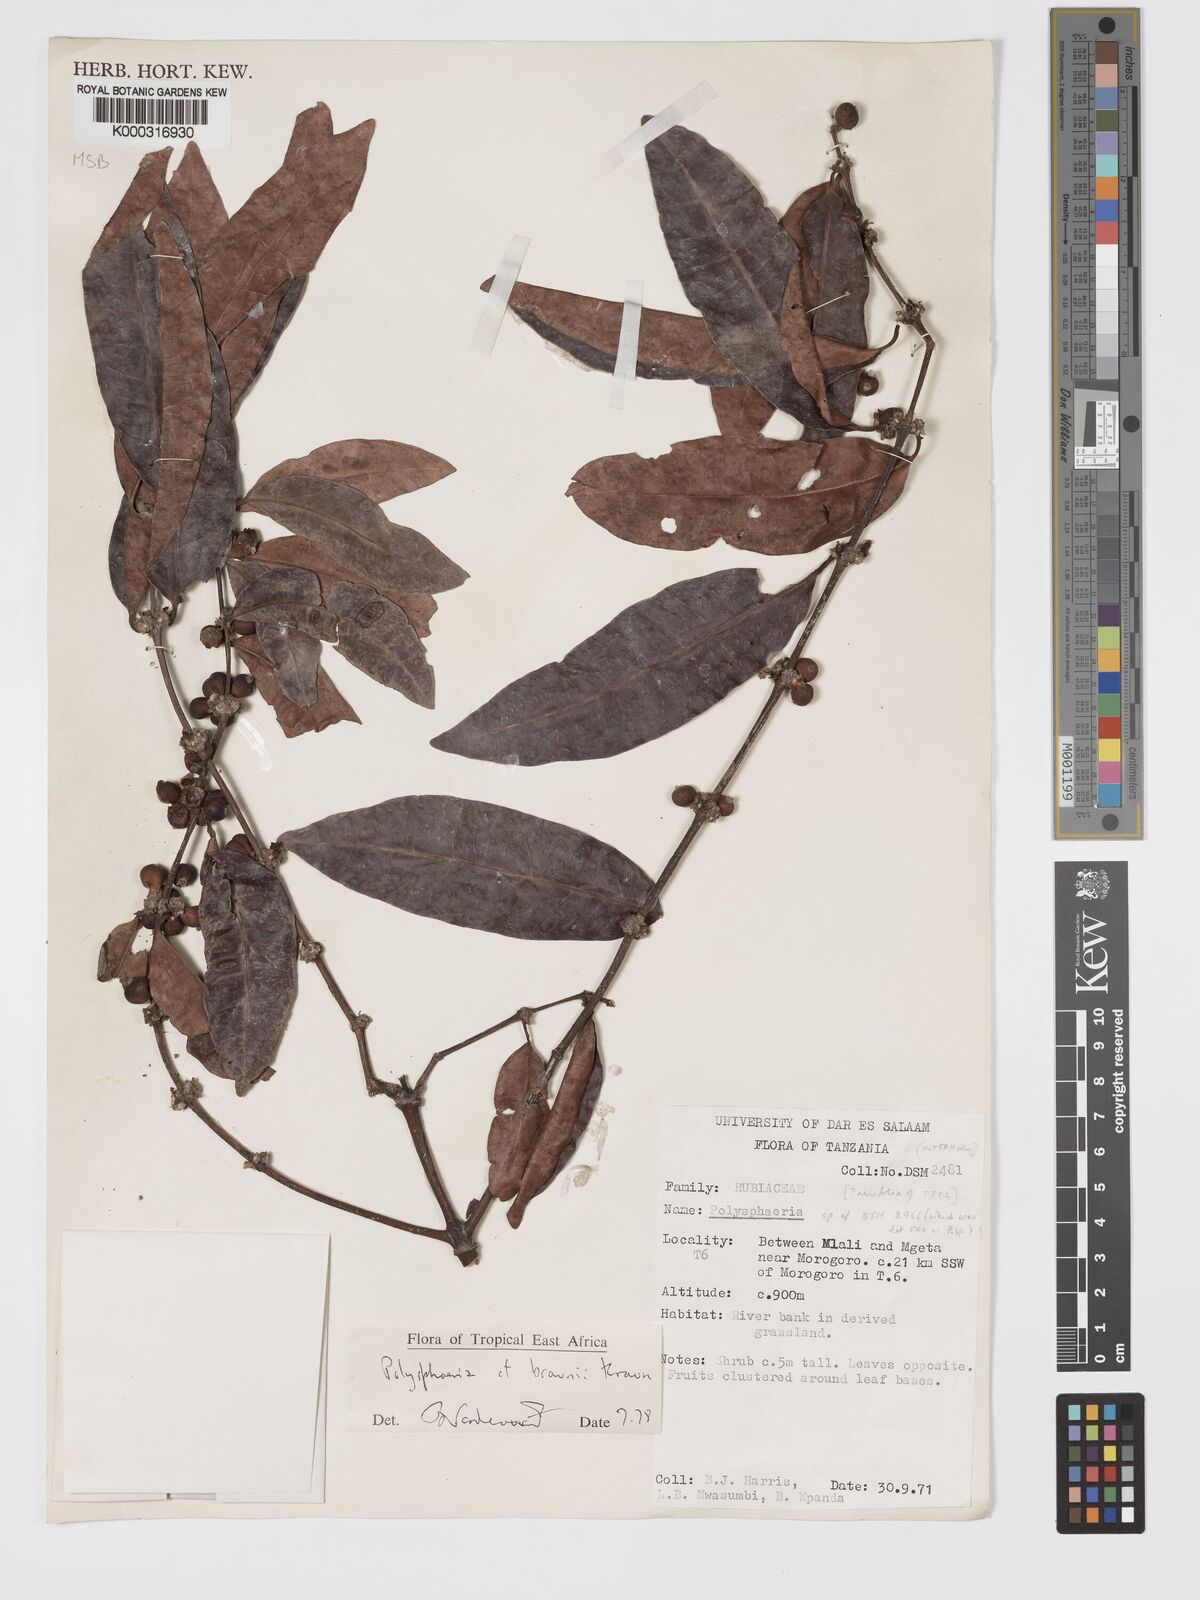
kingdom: Plantae
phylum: Tracheophyta
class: Magnoliopsida
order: Gentianales
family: Rubiaceae
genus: Polysphaeria
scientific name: Polysphaeria braunii
